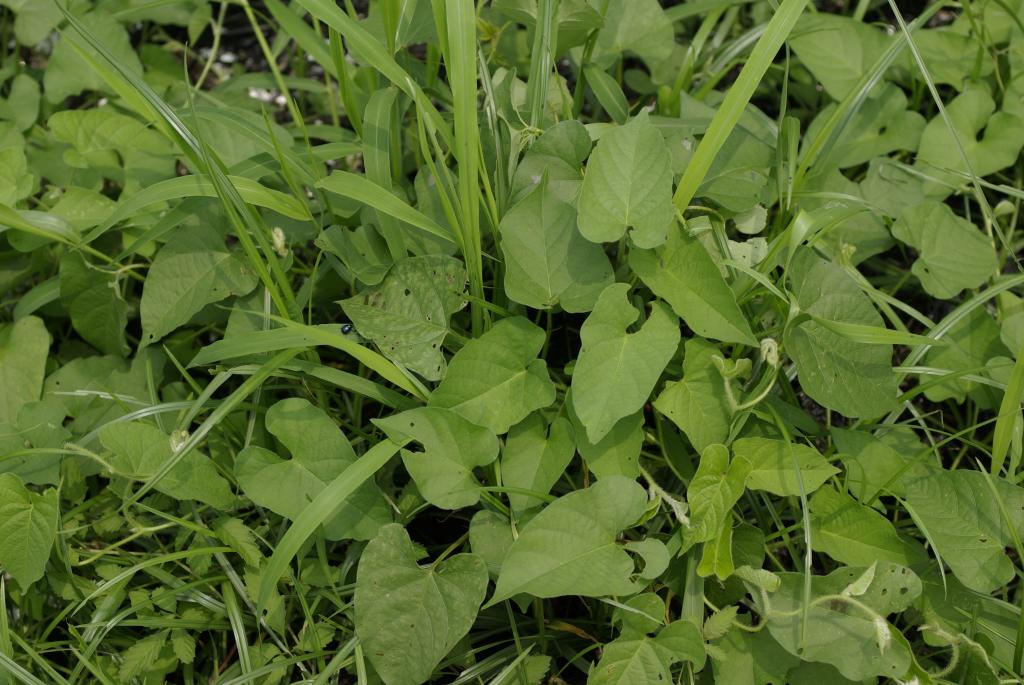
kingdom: Plantae
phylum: Tracheophyta
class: Magnoliopsida
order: Solanales
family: Convolvulaceae
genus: Ipomoea
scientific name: Ipomoea biflora
